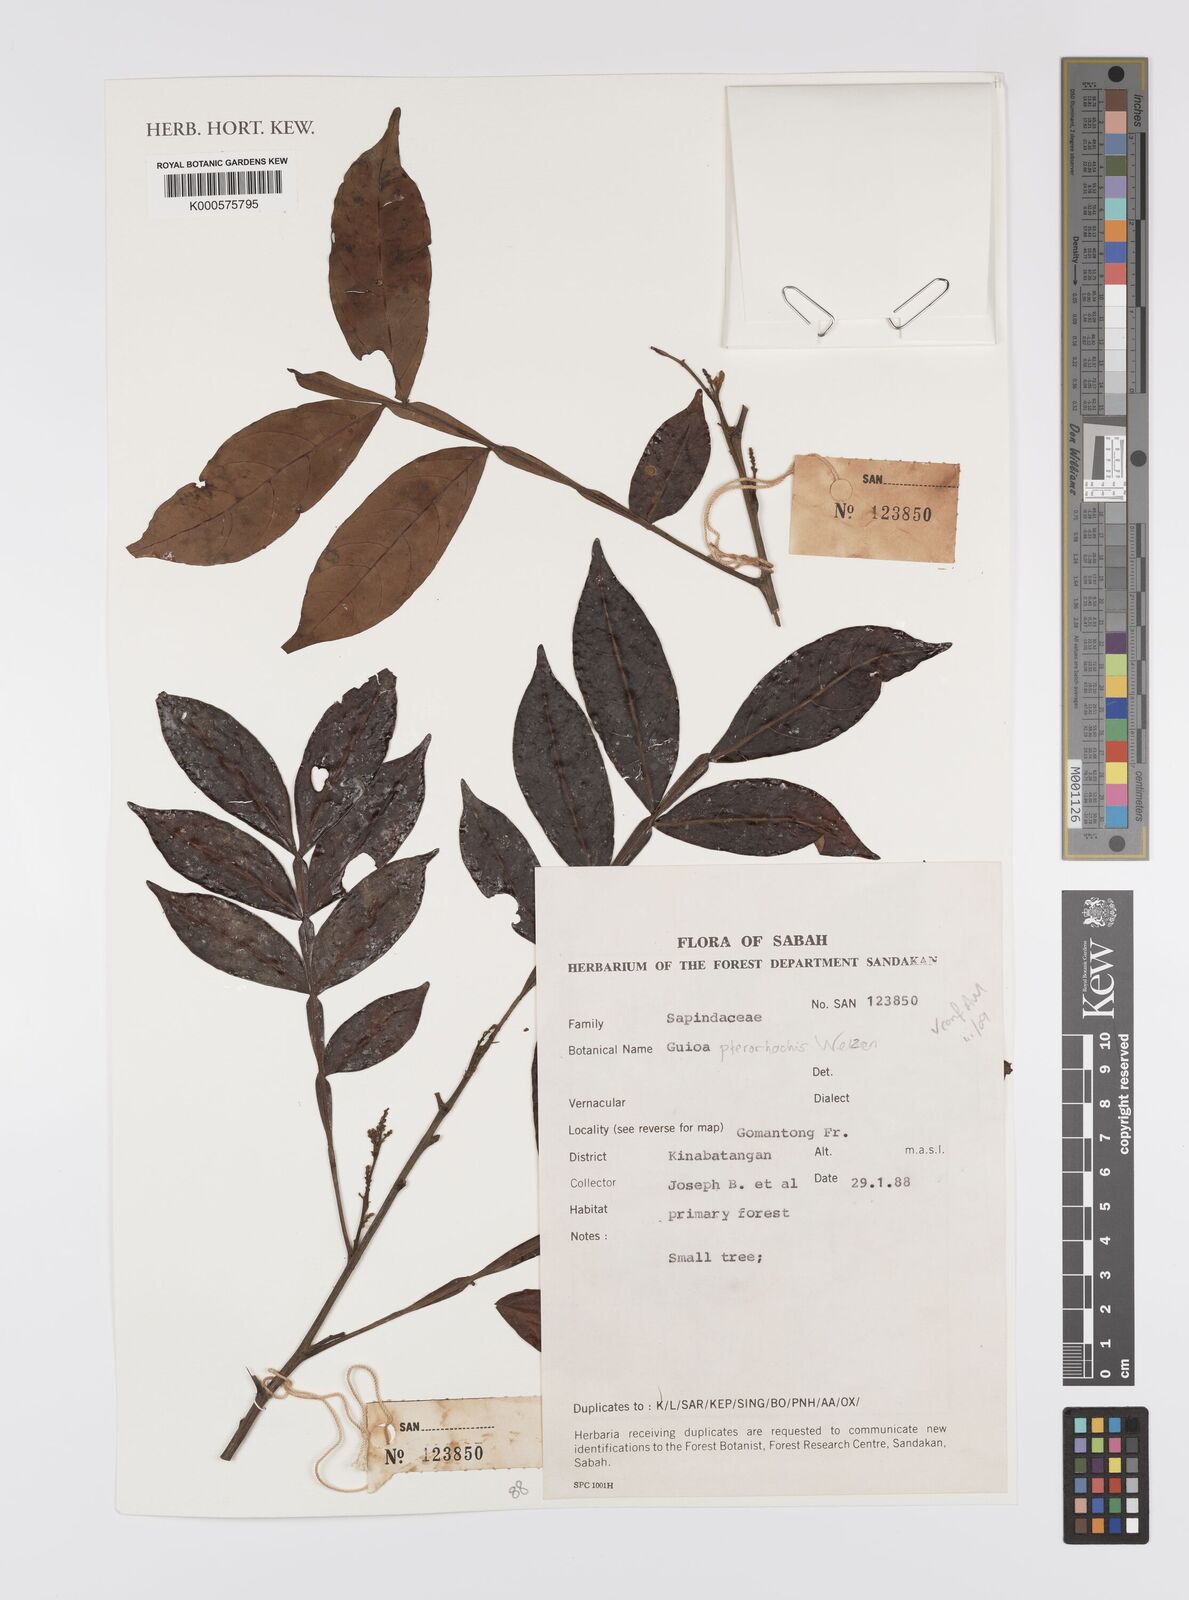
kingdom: Plantae
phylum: Tracheophyta
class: Magnoliopsida
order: Sapindales
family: Sapindaceae
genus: Guioa
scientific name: Guioa pterorhachis
